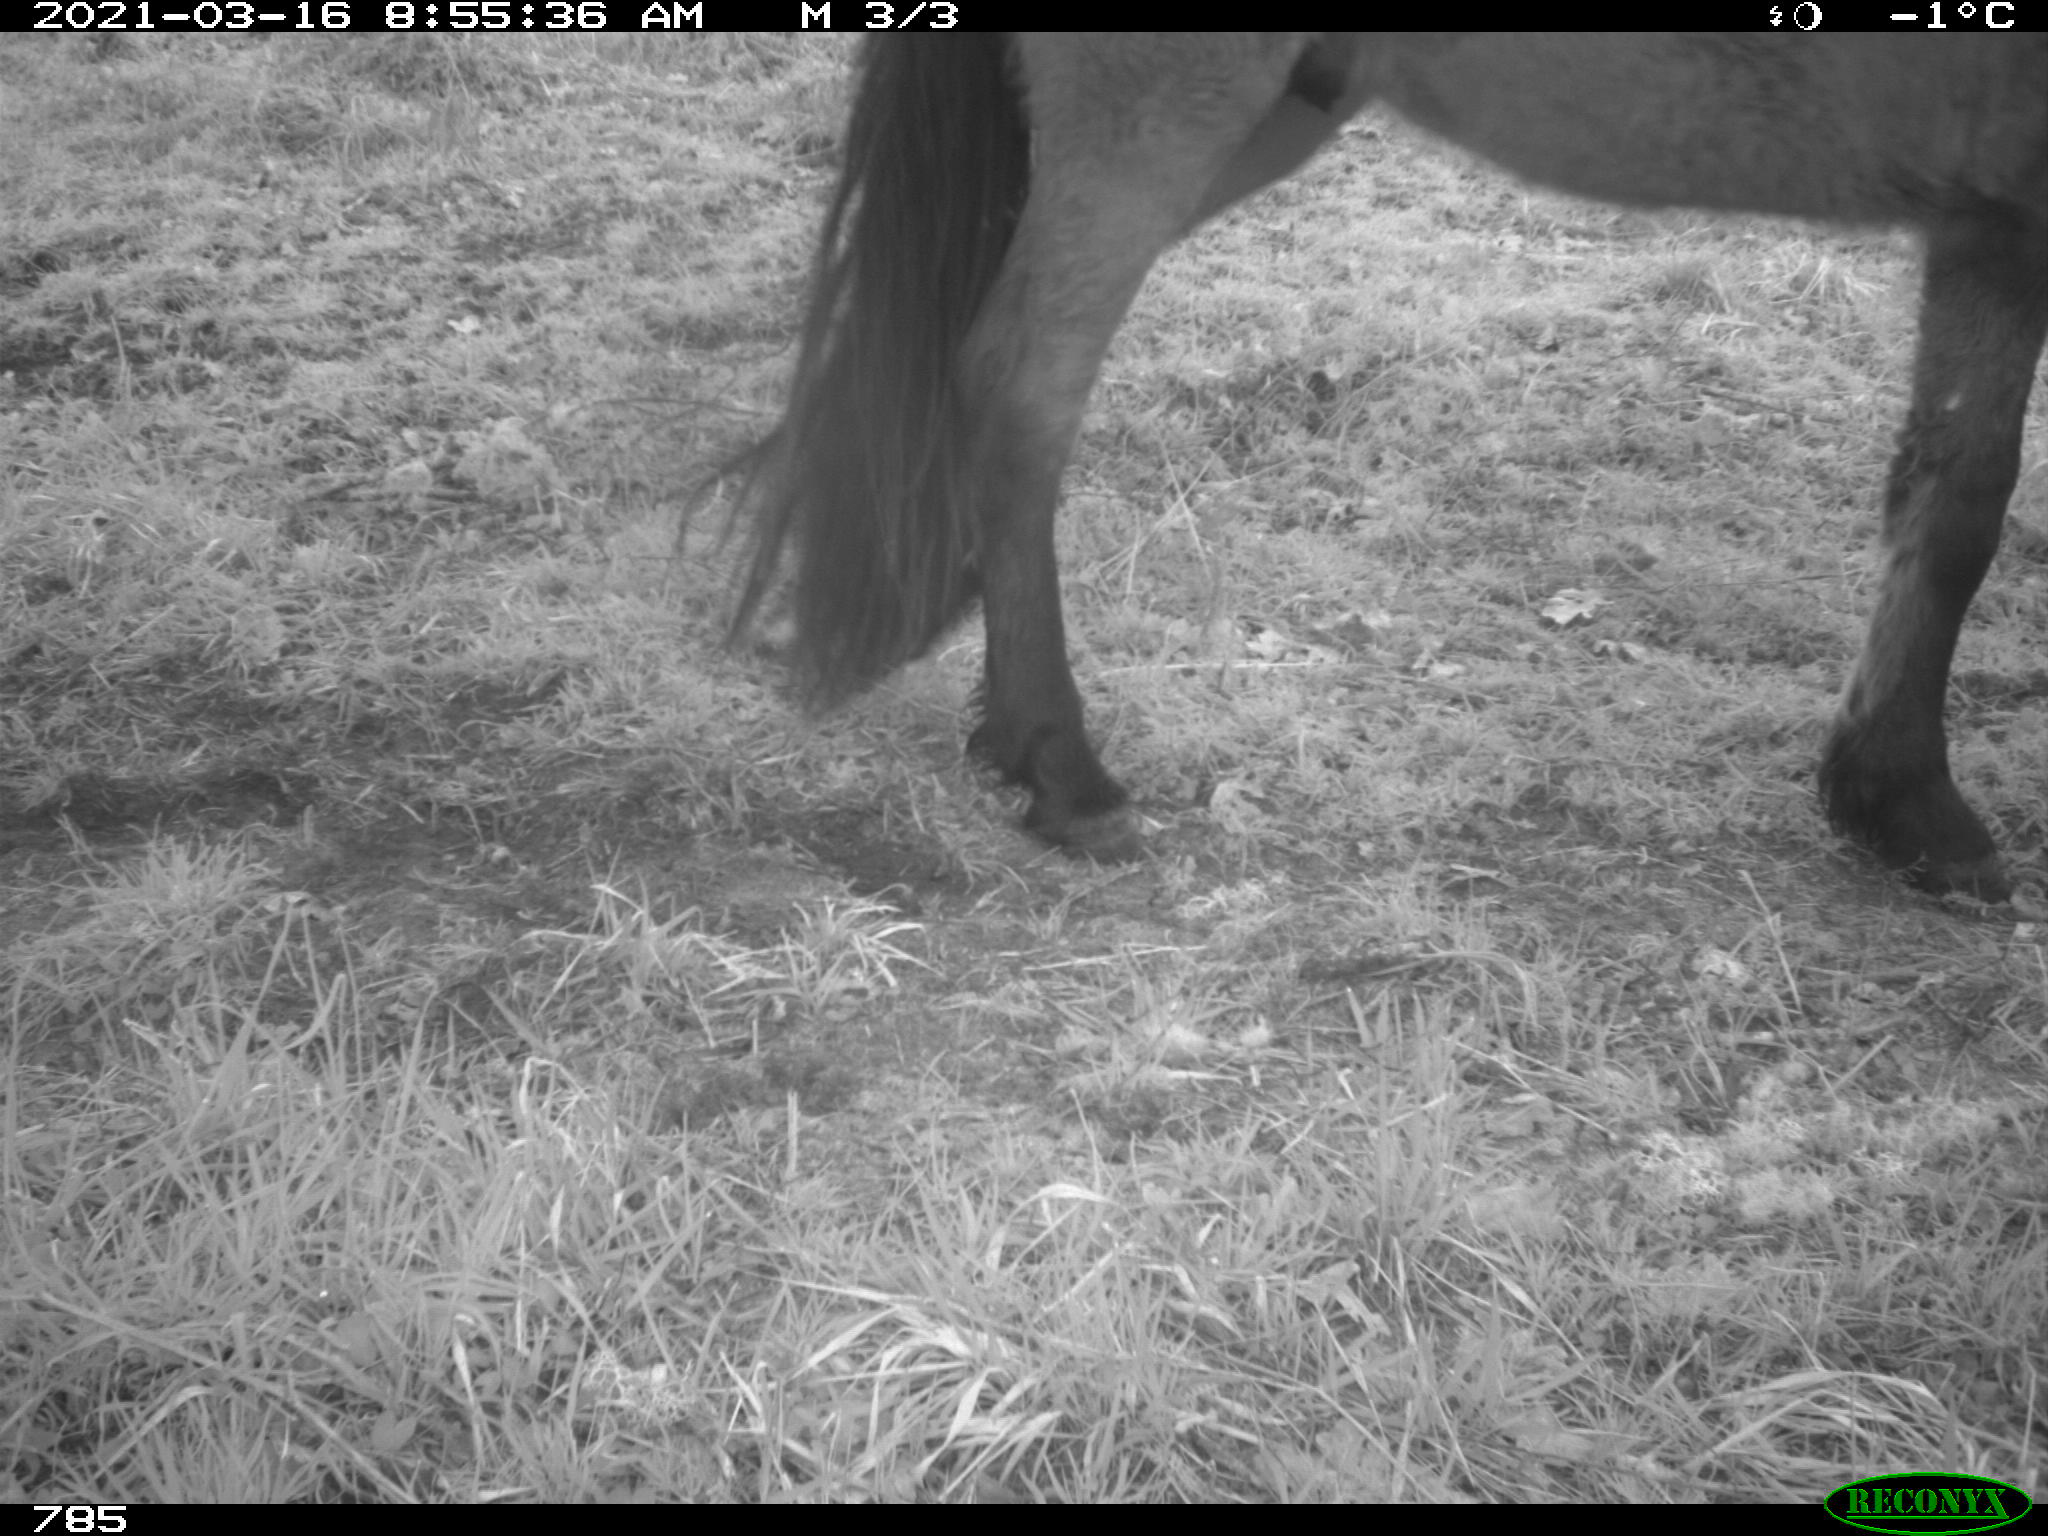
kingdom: Animalia
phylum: Chordata
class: Mammalia
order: Perissodactyla
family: Equidae
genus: Equus
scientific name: Equus caballus
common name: Horse
